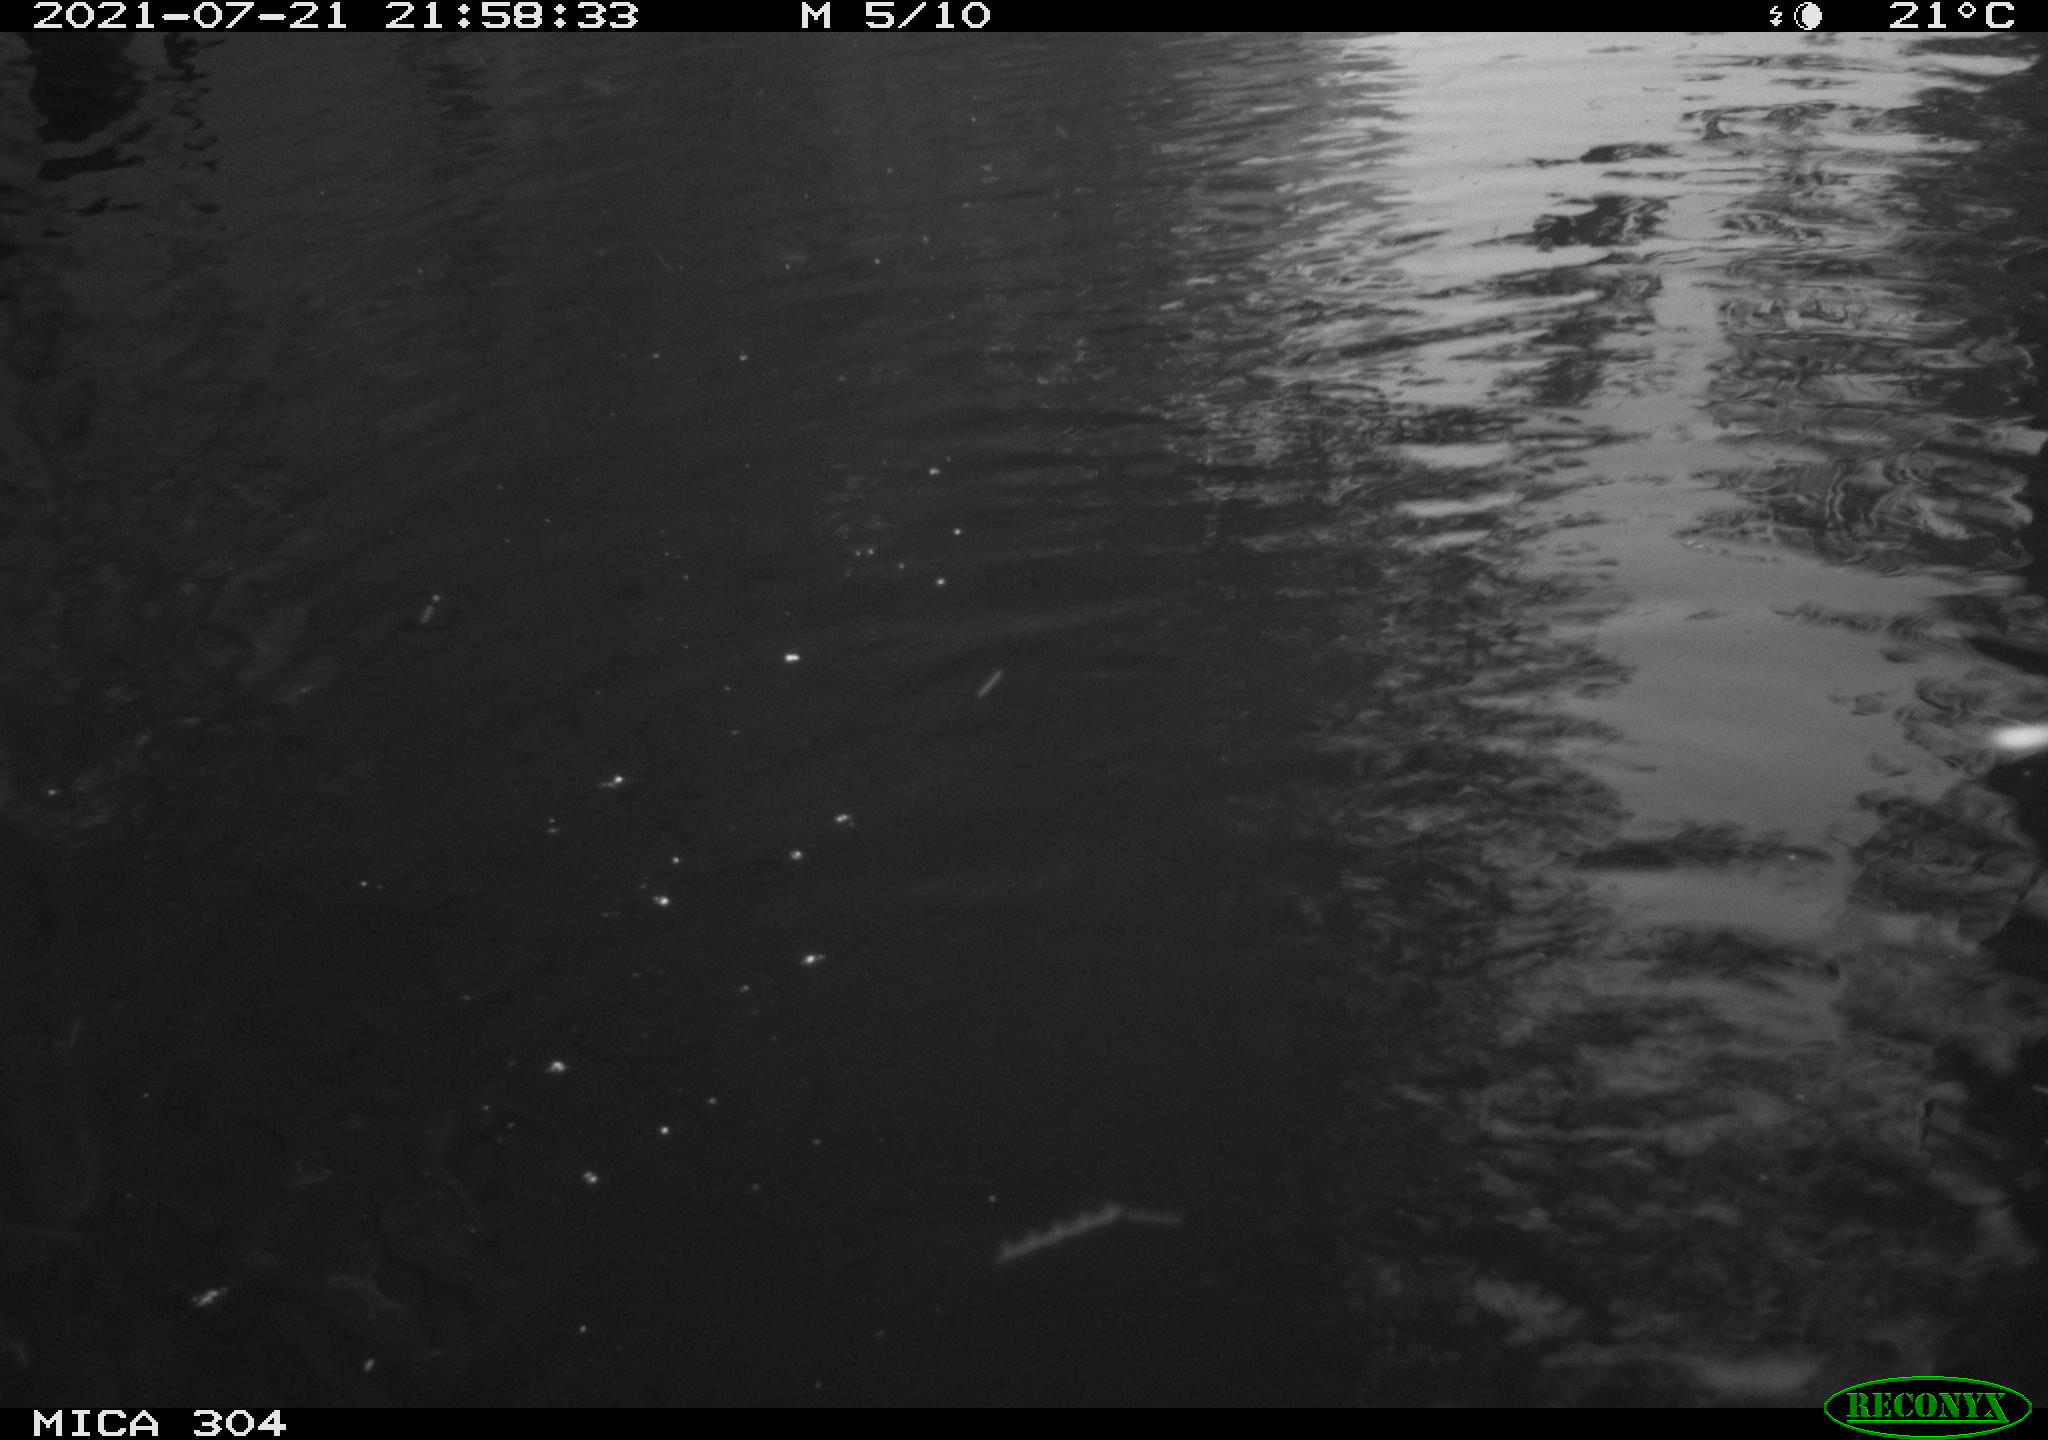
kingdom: Animalia
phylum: Chordata
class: Mammalia
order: Rodentia
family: Cricetidae
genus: Ondatra
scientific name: Ondatra zibethicus
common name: Muskrat
